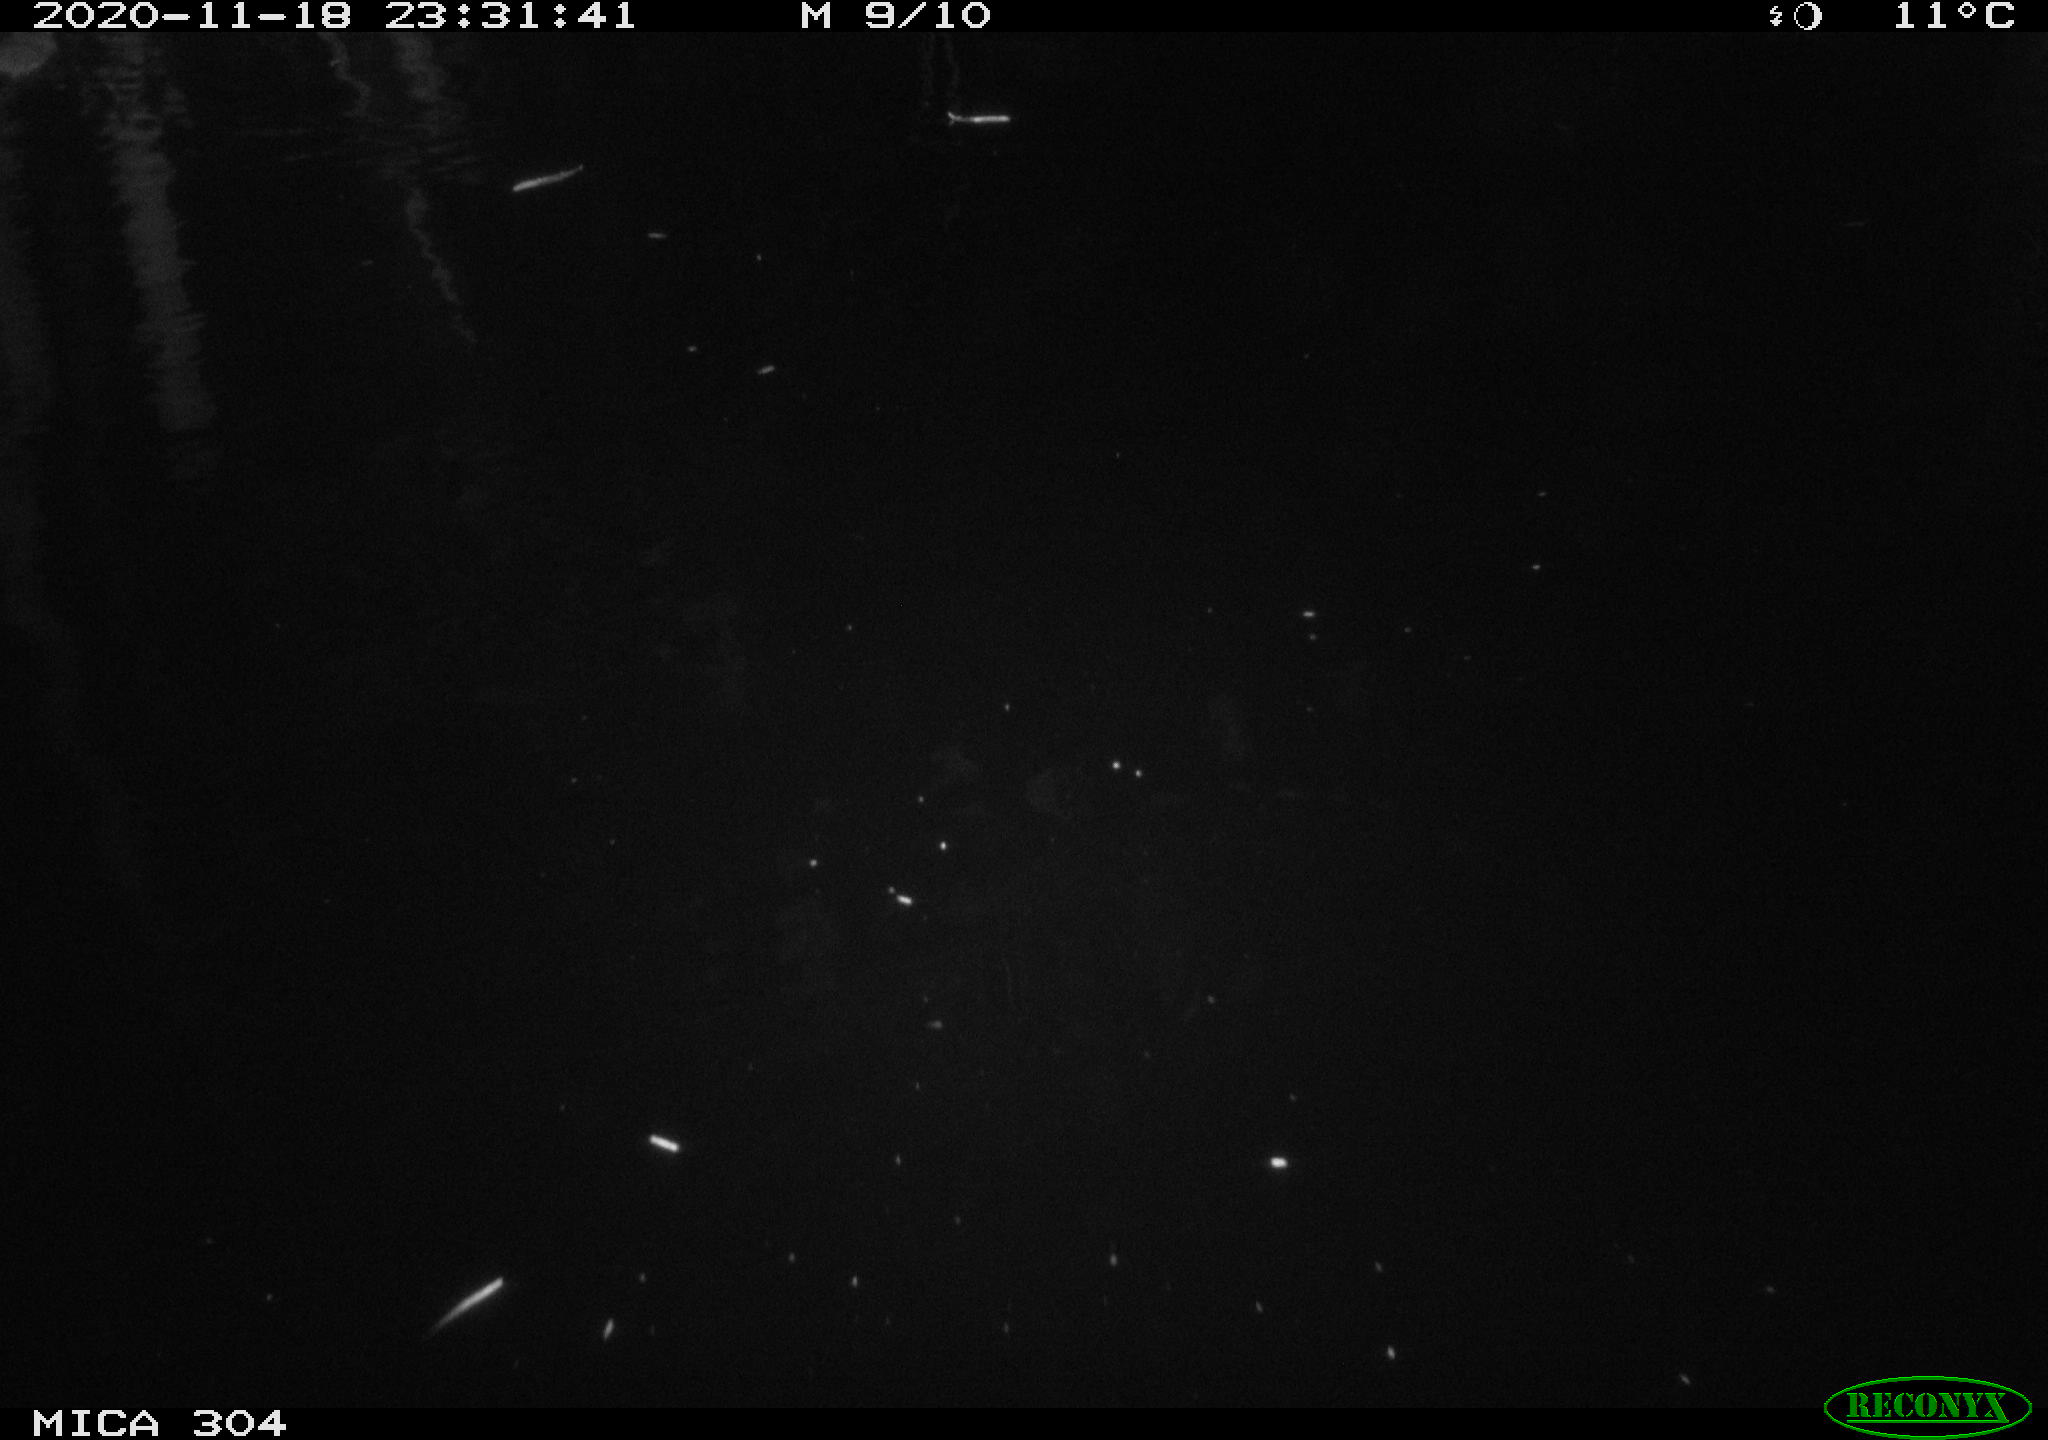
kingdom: Animalia
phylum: Chordata
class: Mammalia
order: Rodentia
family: Muridae
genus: Rattus
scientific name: Rattus norvegicus
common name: Brown rat
